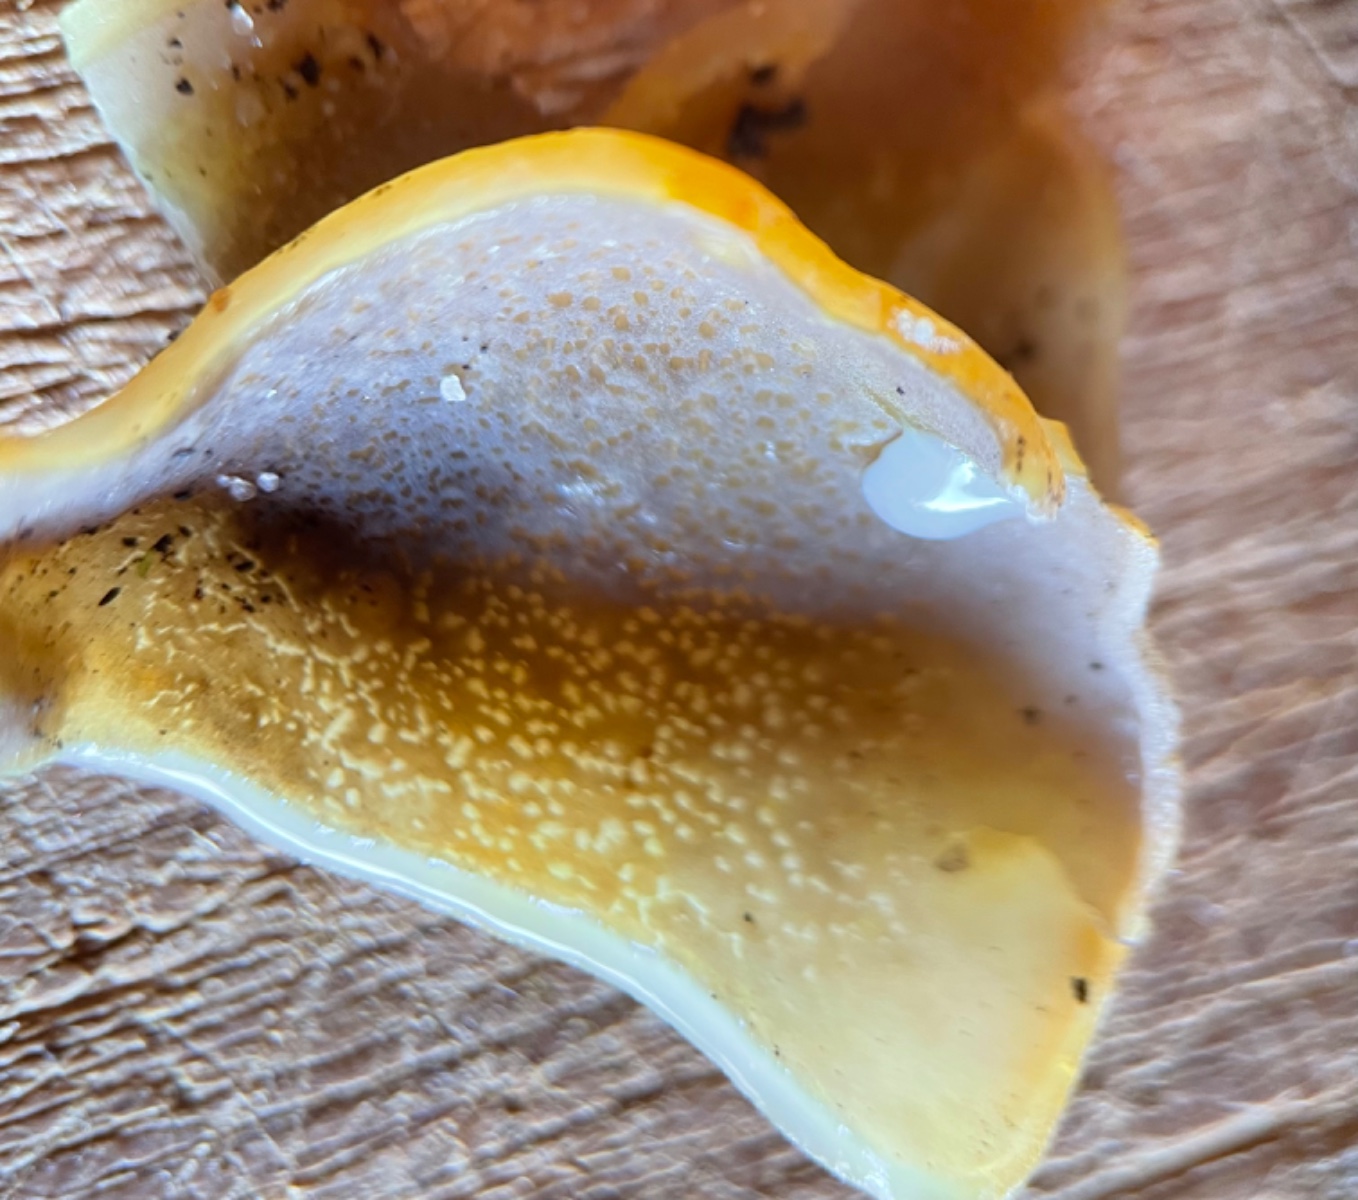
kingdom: Fungi
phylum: Ascomycota
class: Pezizomycetes
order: Pezizales
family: Pezizaceae
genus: Paragalactinia
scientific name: Paragalactinia
